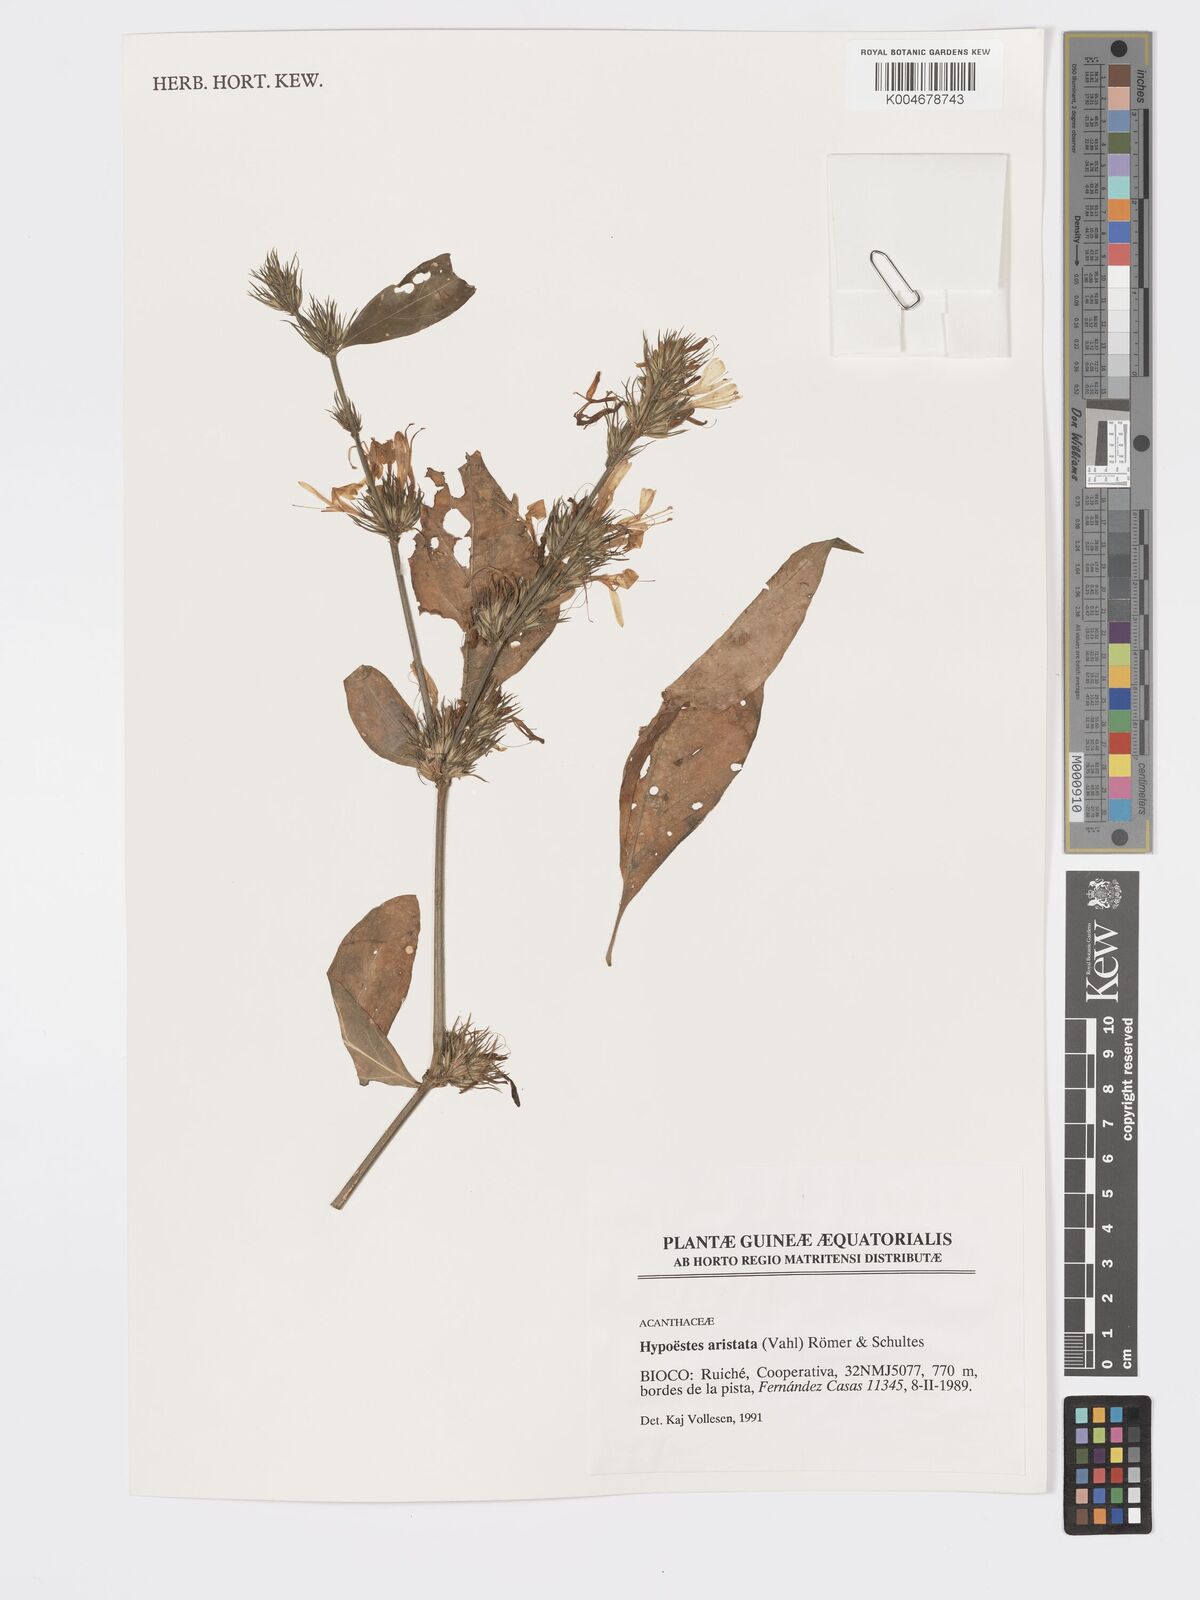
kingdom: Plantae
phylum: Tracheophyta
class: Magnoliopsida
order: Lamiales
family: Acanthaceae
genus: Hypoestes
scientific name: Hypoestes aristata
